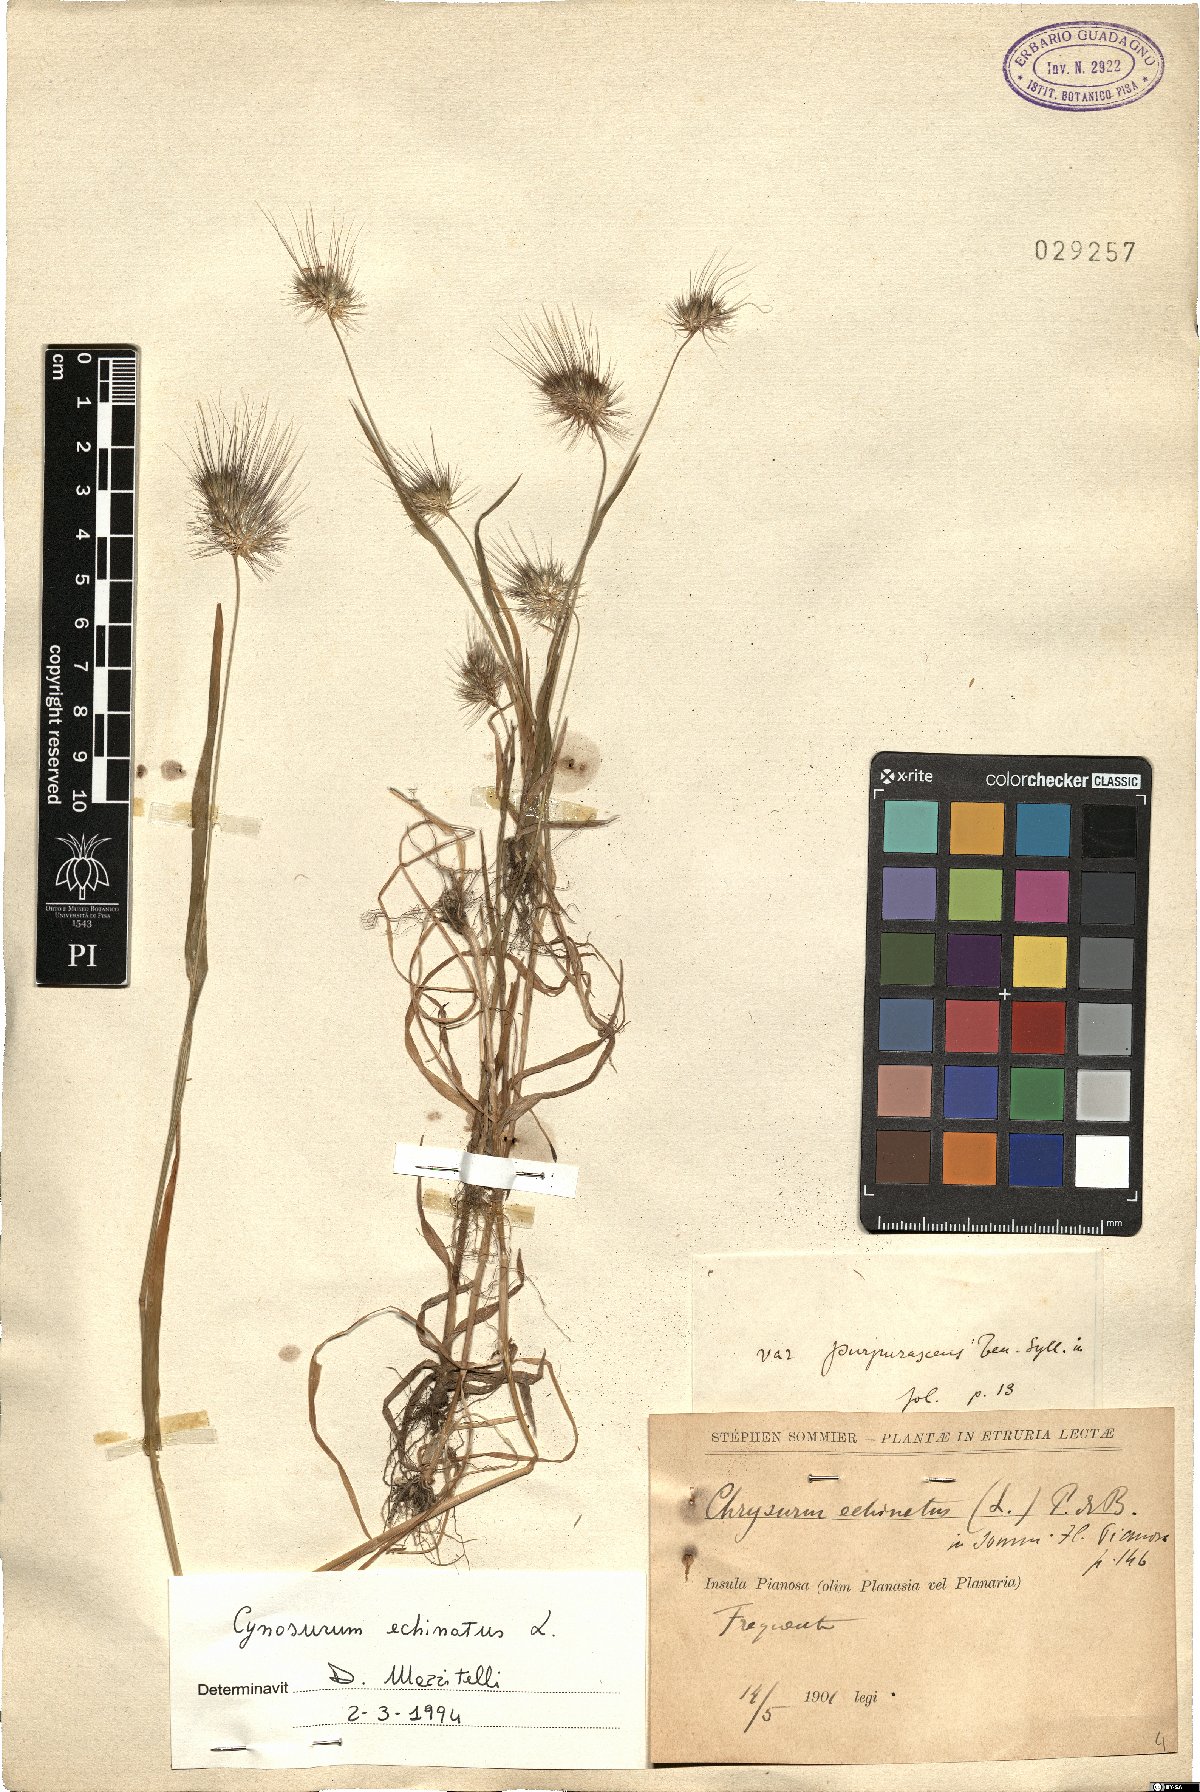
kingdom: Plantae
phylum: Tracheophyta
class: Liliopsida
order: Poales
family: Poaceae
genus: Cynosurus
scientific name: Cynosurus echinatus
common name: Rough dog's-tail
